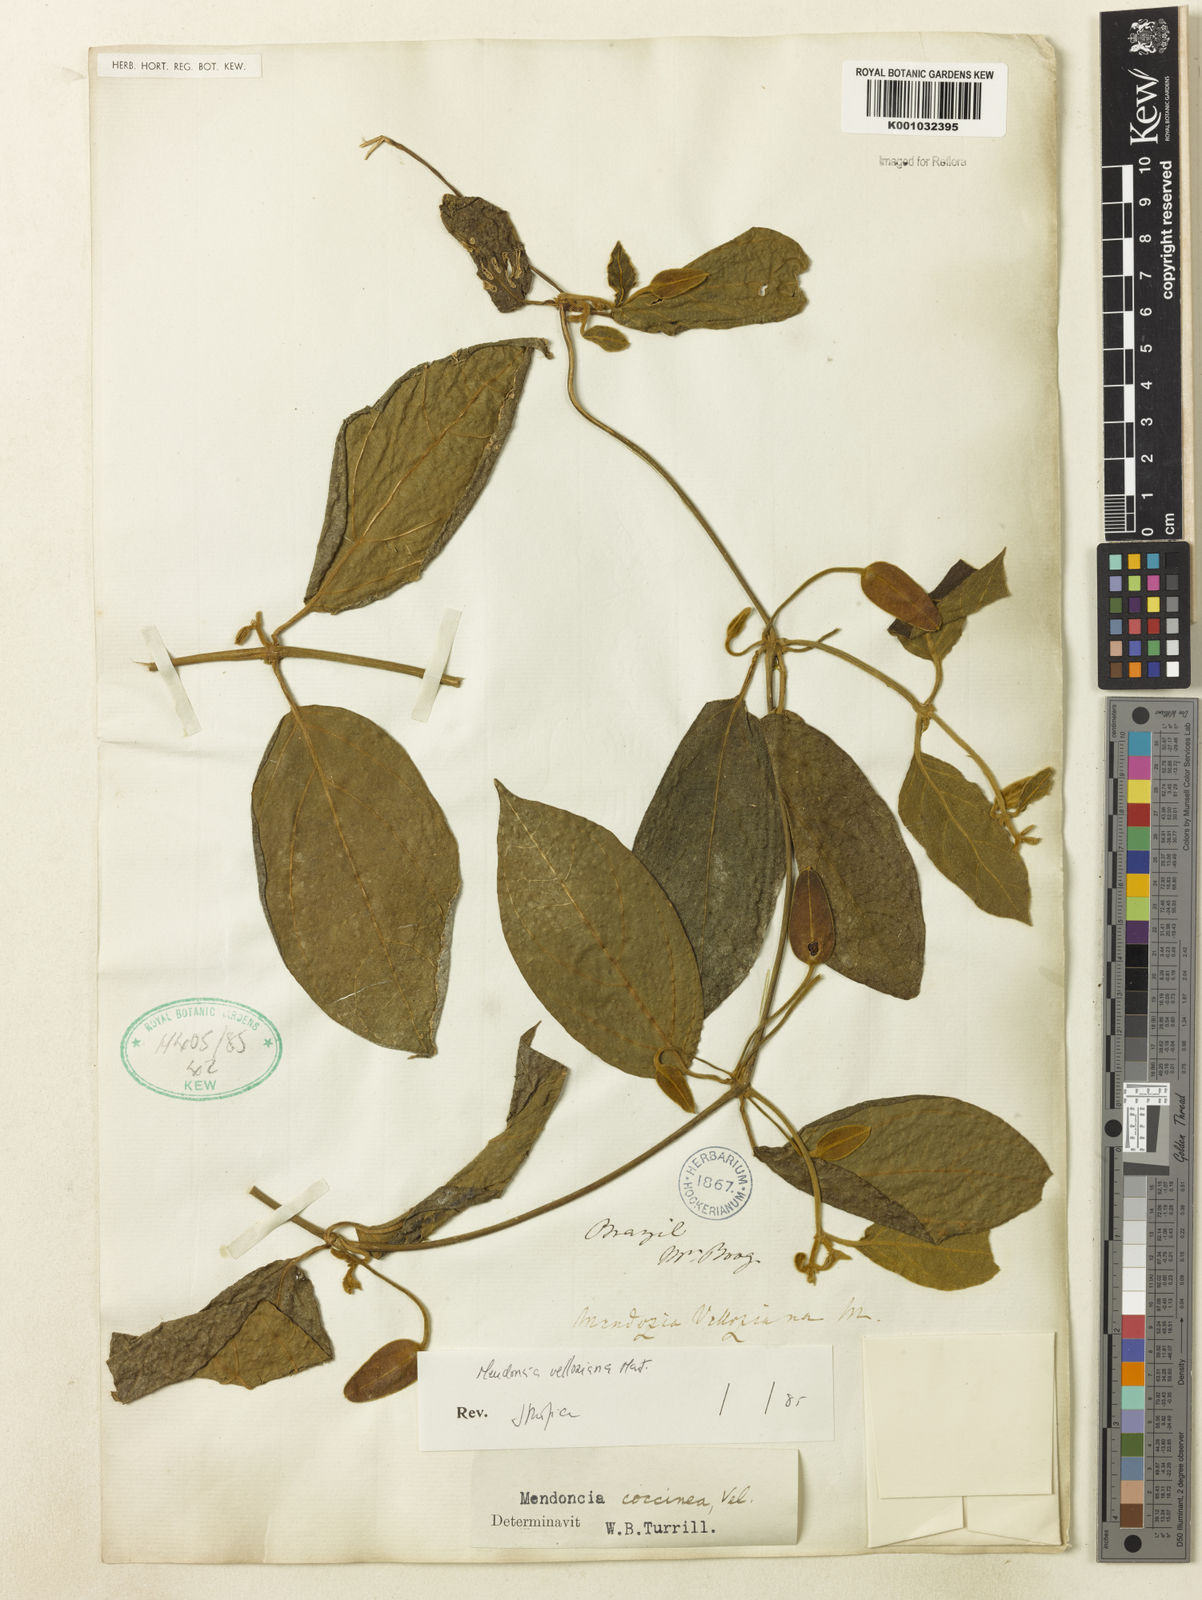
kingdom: Plantae
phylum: Tracheophyta
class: Magnoliopsida
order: Lamiales
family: Acanthaceae
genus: Mendoncia
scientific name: Mendoncia velloziana
